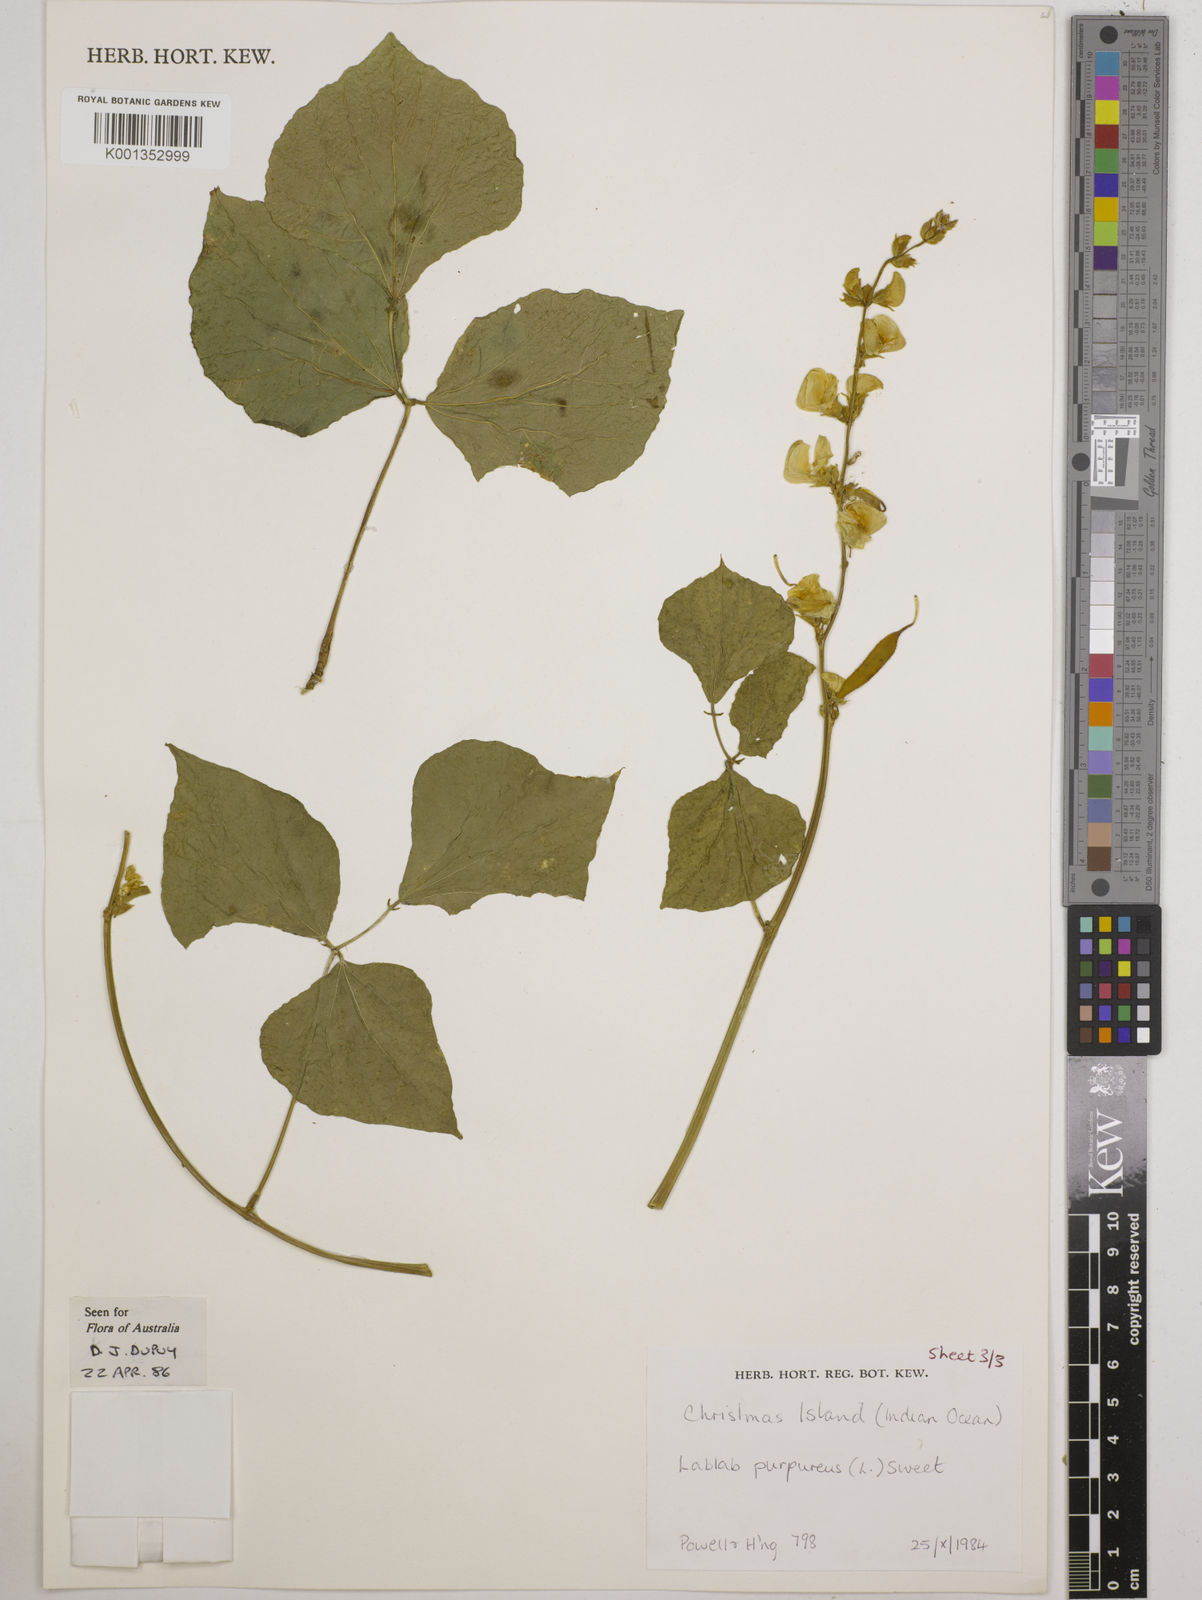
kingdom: Plantae
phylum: Tracheophyta
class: Magnoliopsida
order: Fabales
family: Fabaceae
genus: Lablab
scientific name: Lablab purpureus
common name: Lablab-bean
